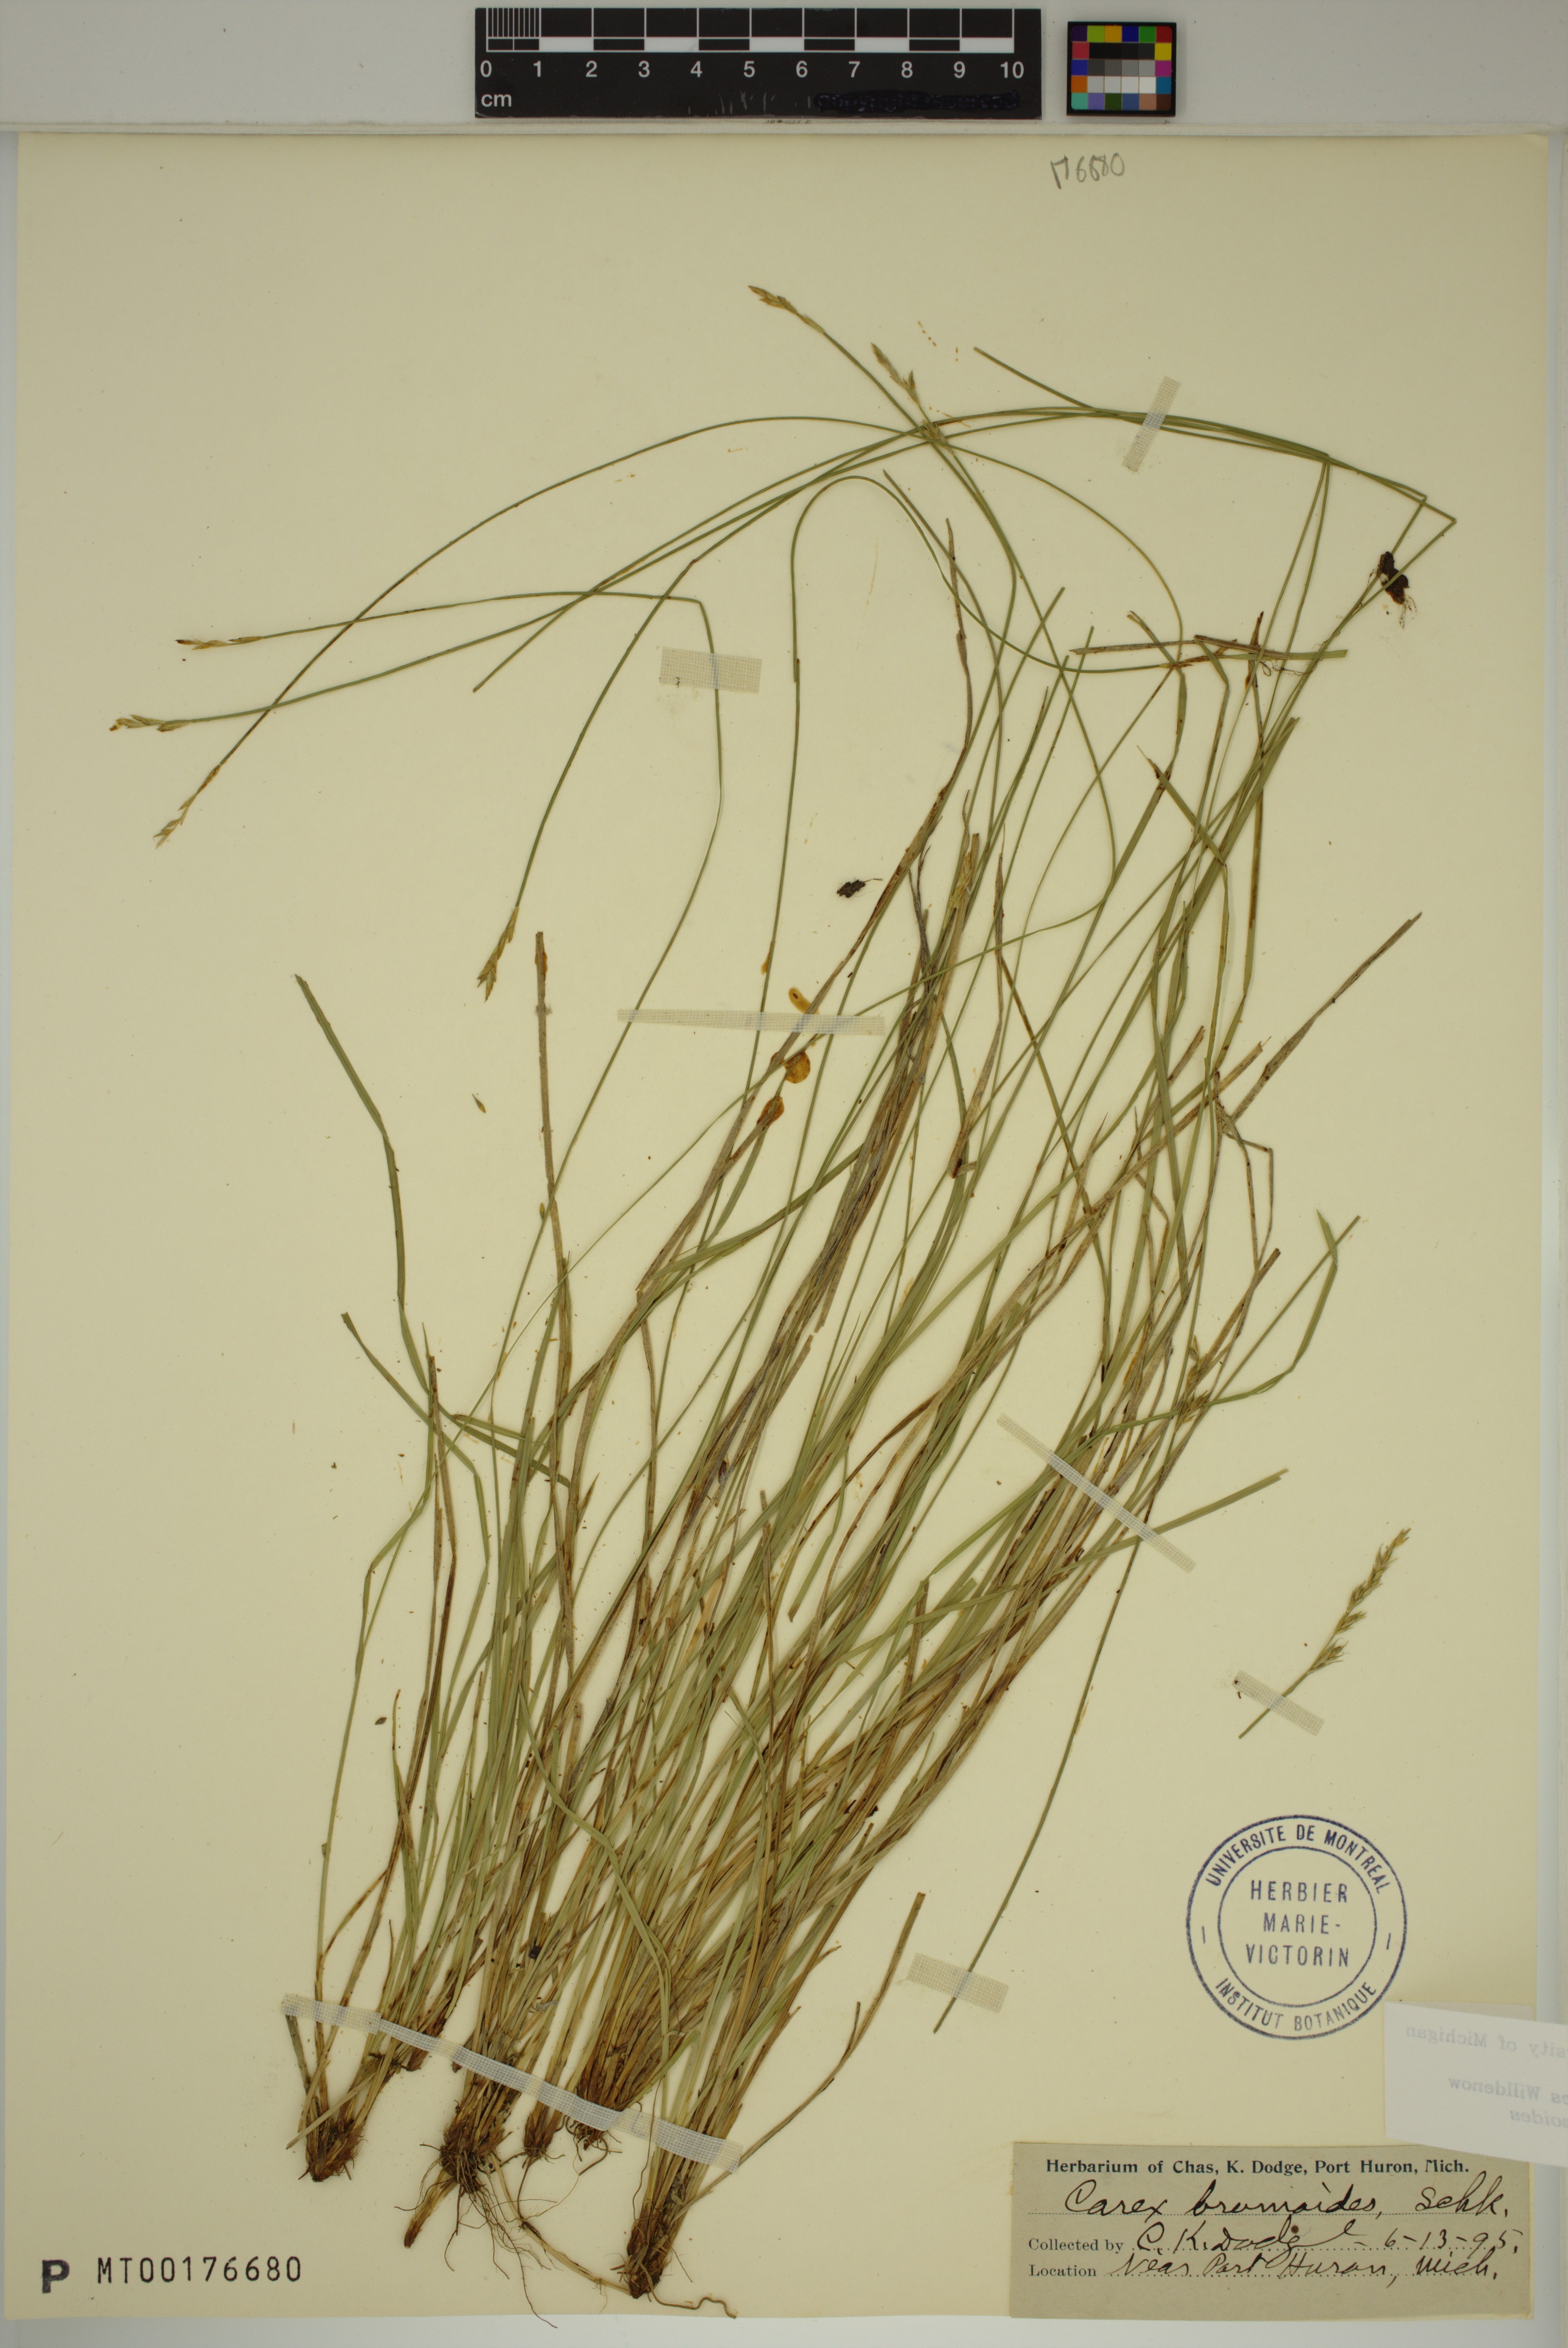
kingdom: Plantae
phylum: Tracheophyta
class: Liliopsida
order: Poales
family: Cyperaceae
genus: Carex
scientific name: Carex bromoides
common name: Brome hummock sedge
